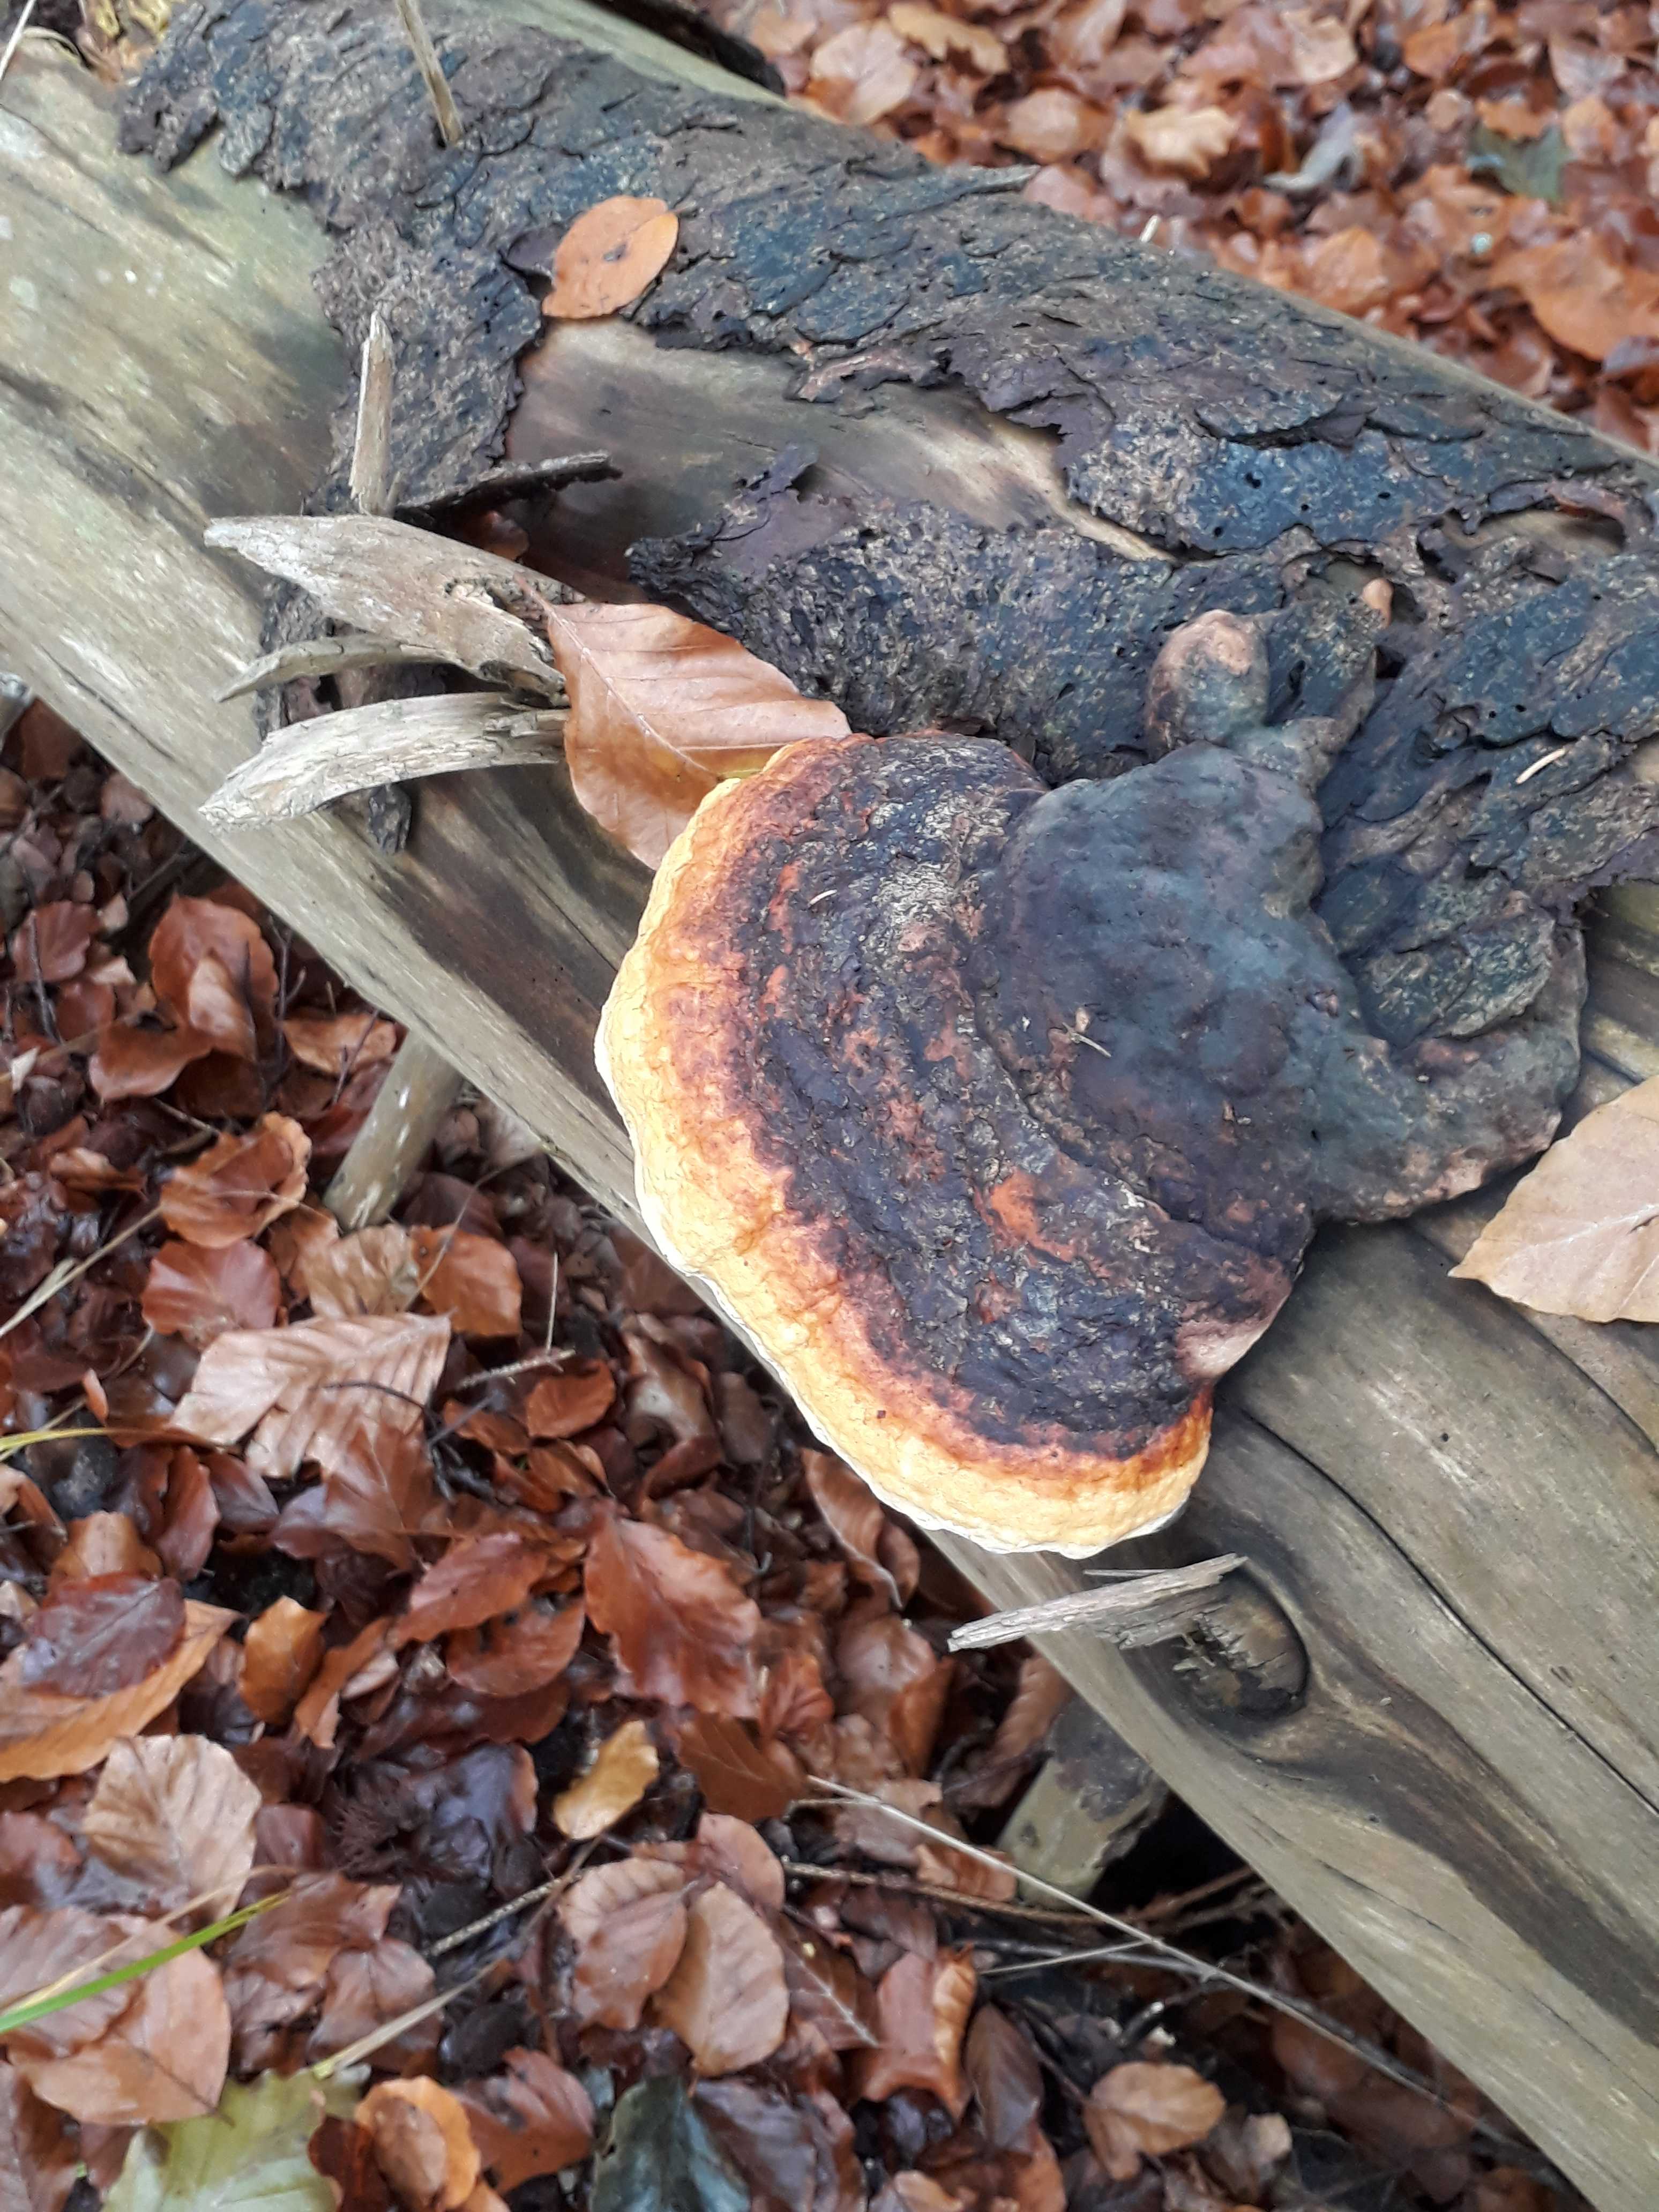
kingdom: Fungi
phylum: Basidiomycota
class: Agaricomycetes
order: Polyporales
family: Fomitopsidaceae
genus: Fomitopsis
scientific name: Fomitopsis pinicola
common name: randbæltet hovporesvamp
